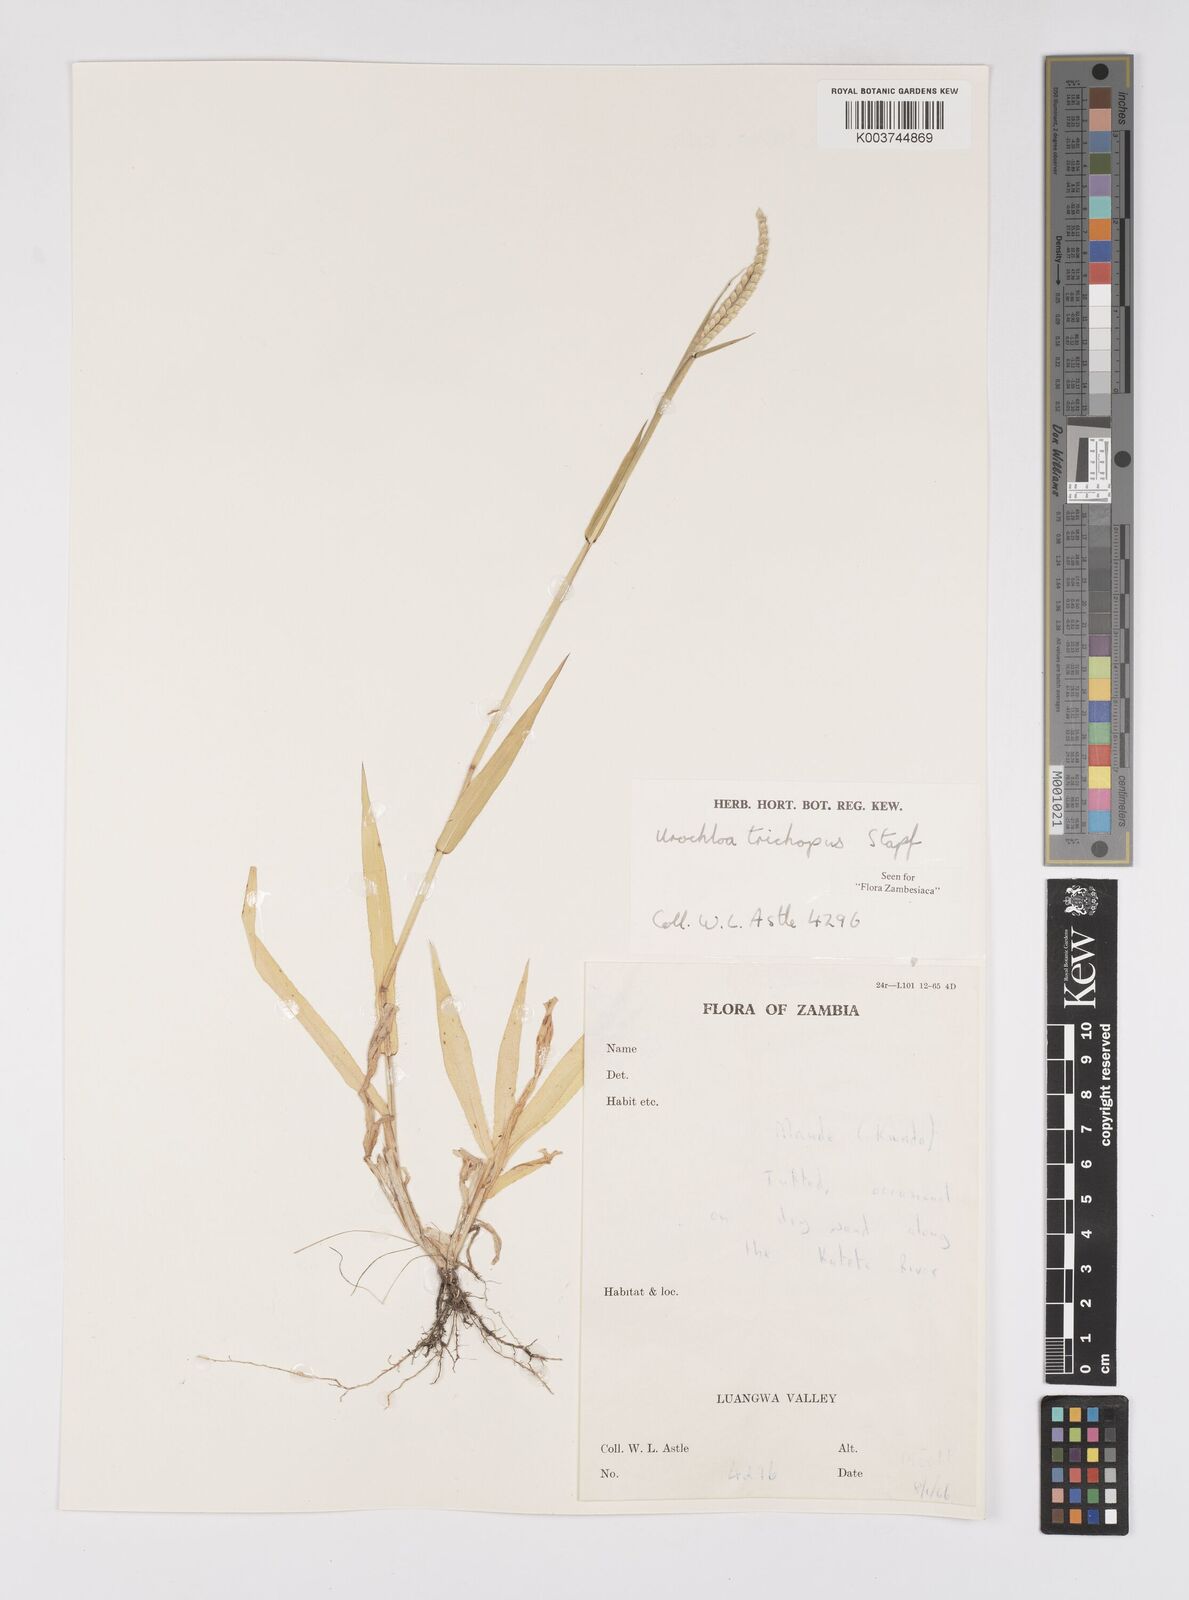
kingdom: Plantae
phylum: Tracheophyta
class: Liliopsida
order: Poales
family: Poaceae
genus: Urochloa
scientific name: Urochloa trichopus
